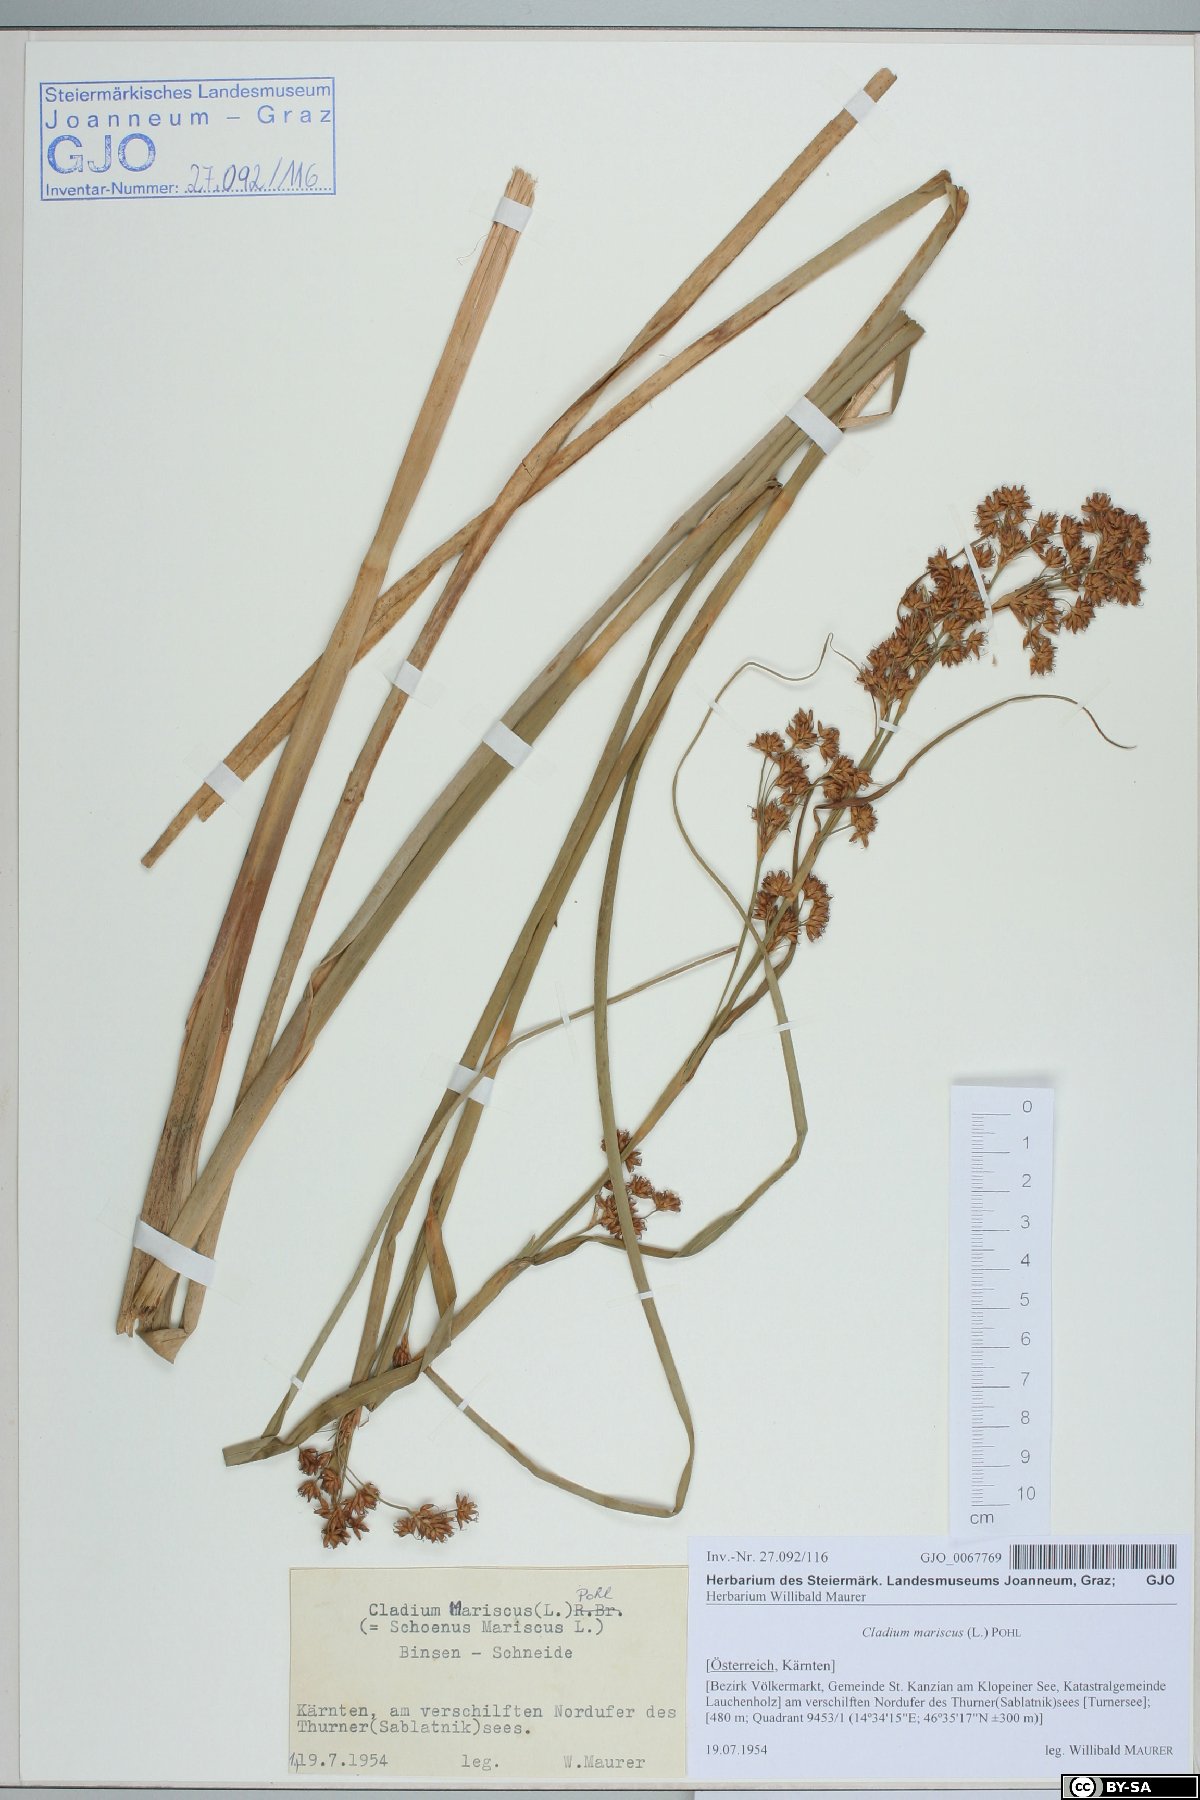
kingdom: Plantae
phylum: Tracheophyta
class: Liliopsida
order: Poales
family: Cyperaceae
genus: Cladium
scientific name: Cladium mariscus
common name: Great fen-sedge
